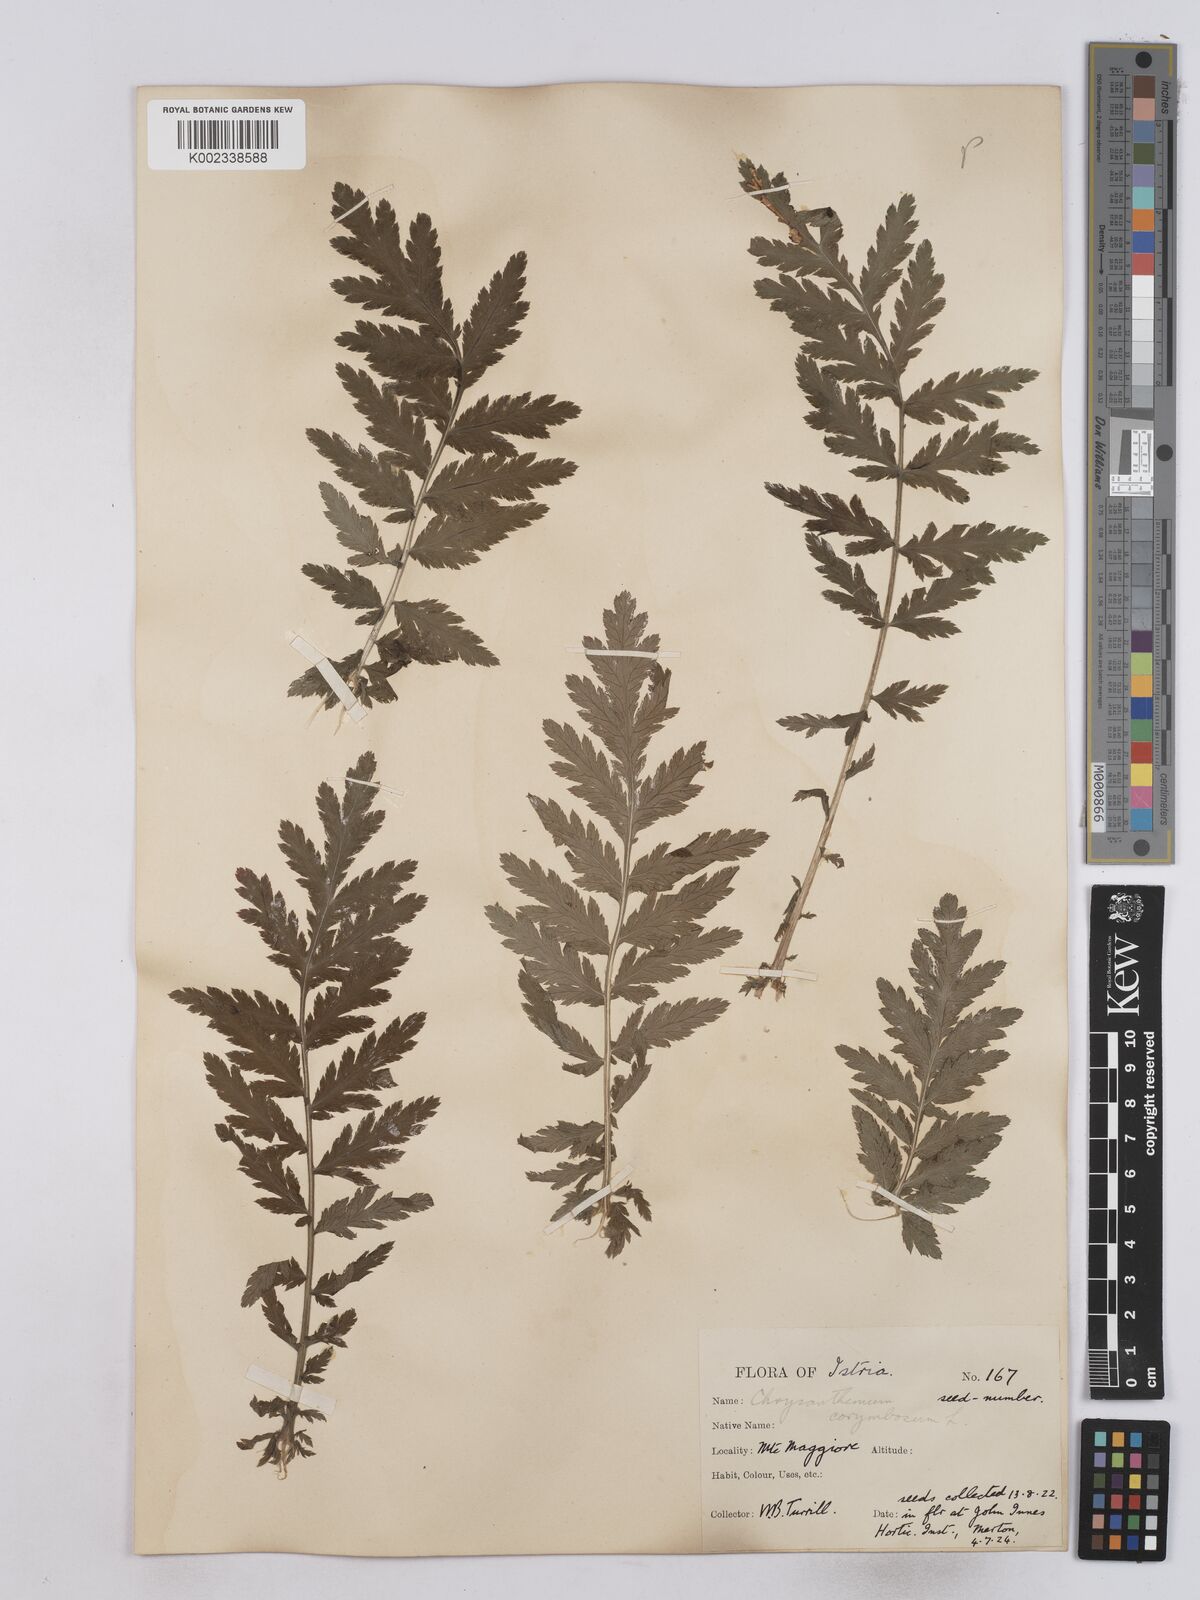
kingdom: Plantae
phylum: Tracheophyta
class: Magnoliopsida
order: Asterales
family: Asteraceae
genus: Tanacetum
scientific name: Tanacetum corymbosum
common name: Scentless feverfew
